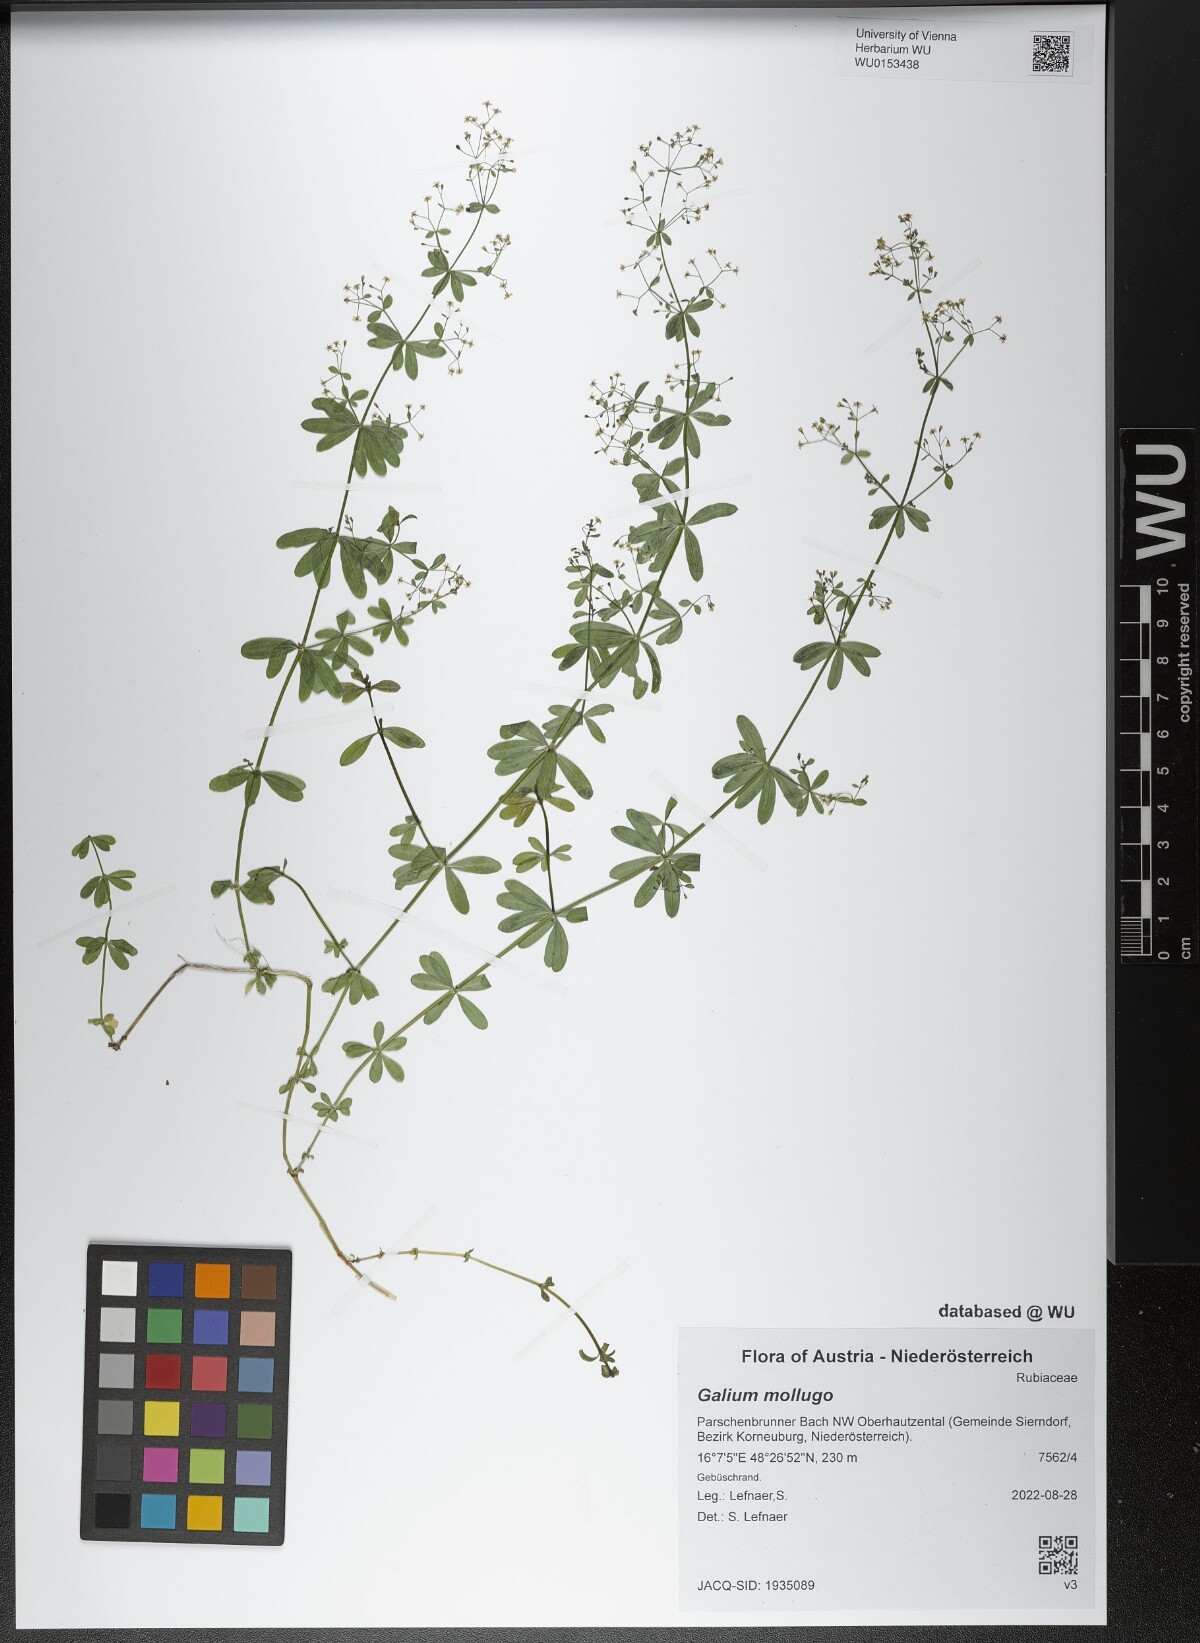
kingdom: Plantae
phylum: Tracheophyta
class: Magnoliopsida
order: Gentianales
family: Rubiaceae
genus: Galium
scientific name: Galium mollugo
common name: Hedge bedstraw
